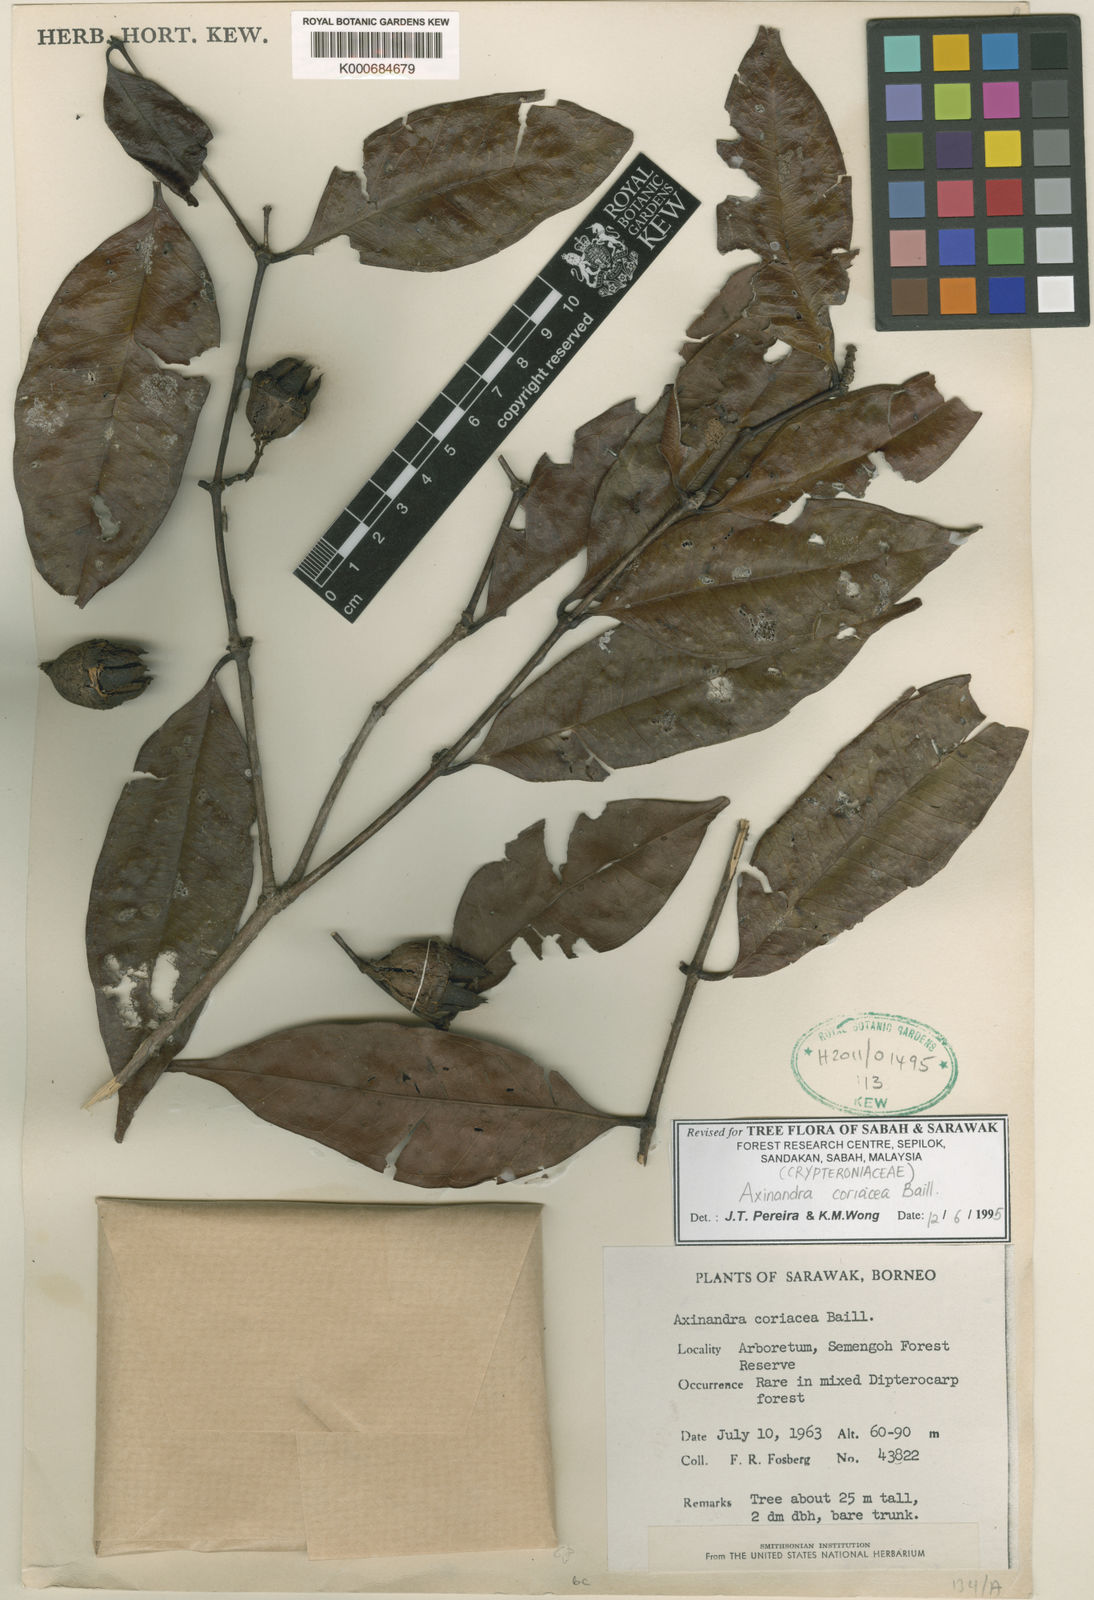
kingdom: Plantae
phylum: Tracheophyta
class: Magnoliopsida
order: Myrtales
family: Crypteroniaceae
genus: Axinandra
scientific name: Axinandra coriacea
